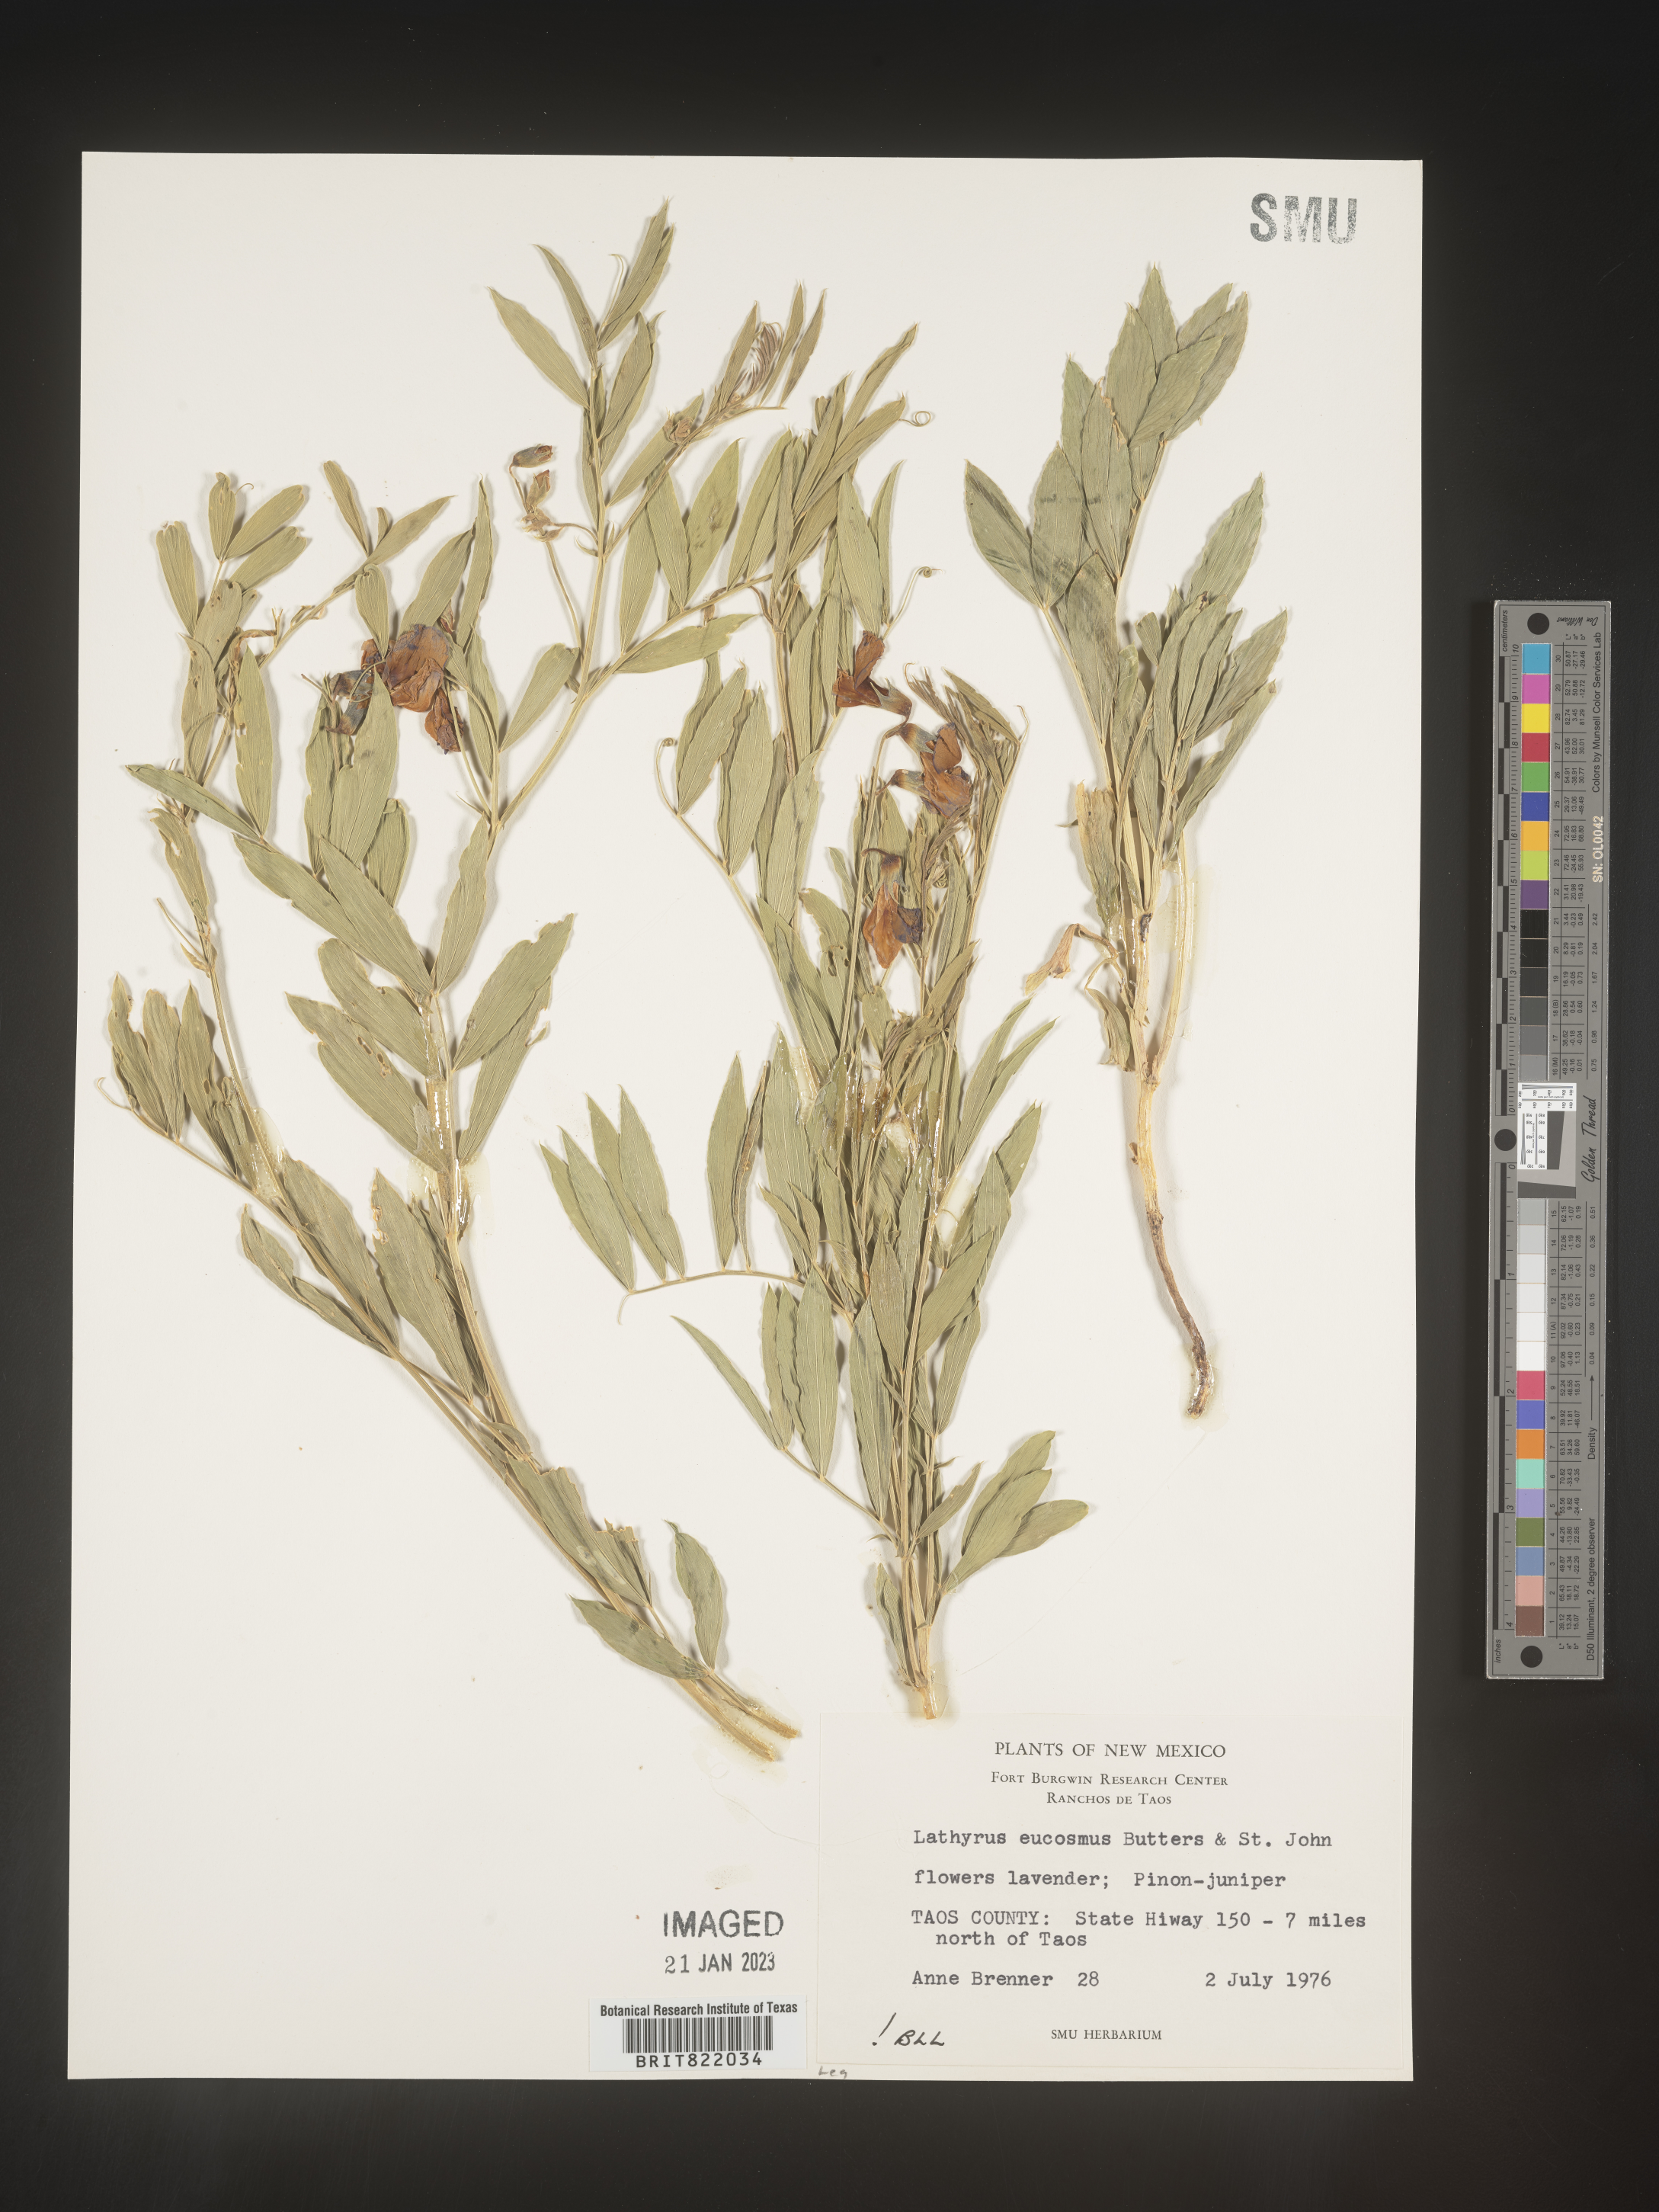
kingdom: Plantae
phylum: Tracheophyta
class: Magnoliopsida
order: Fabales
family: Fabaceae
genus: Lathyrus
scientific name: Lathyrus
